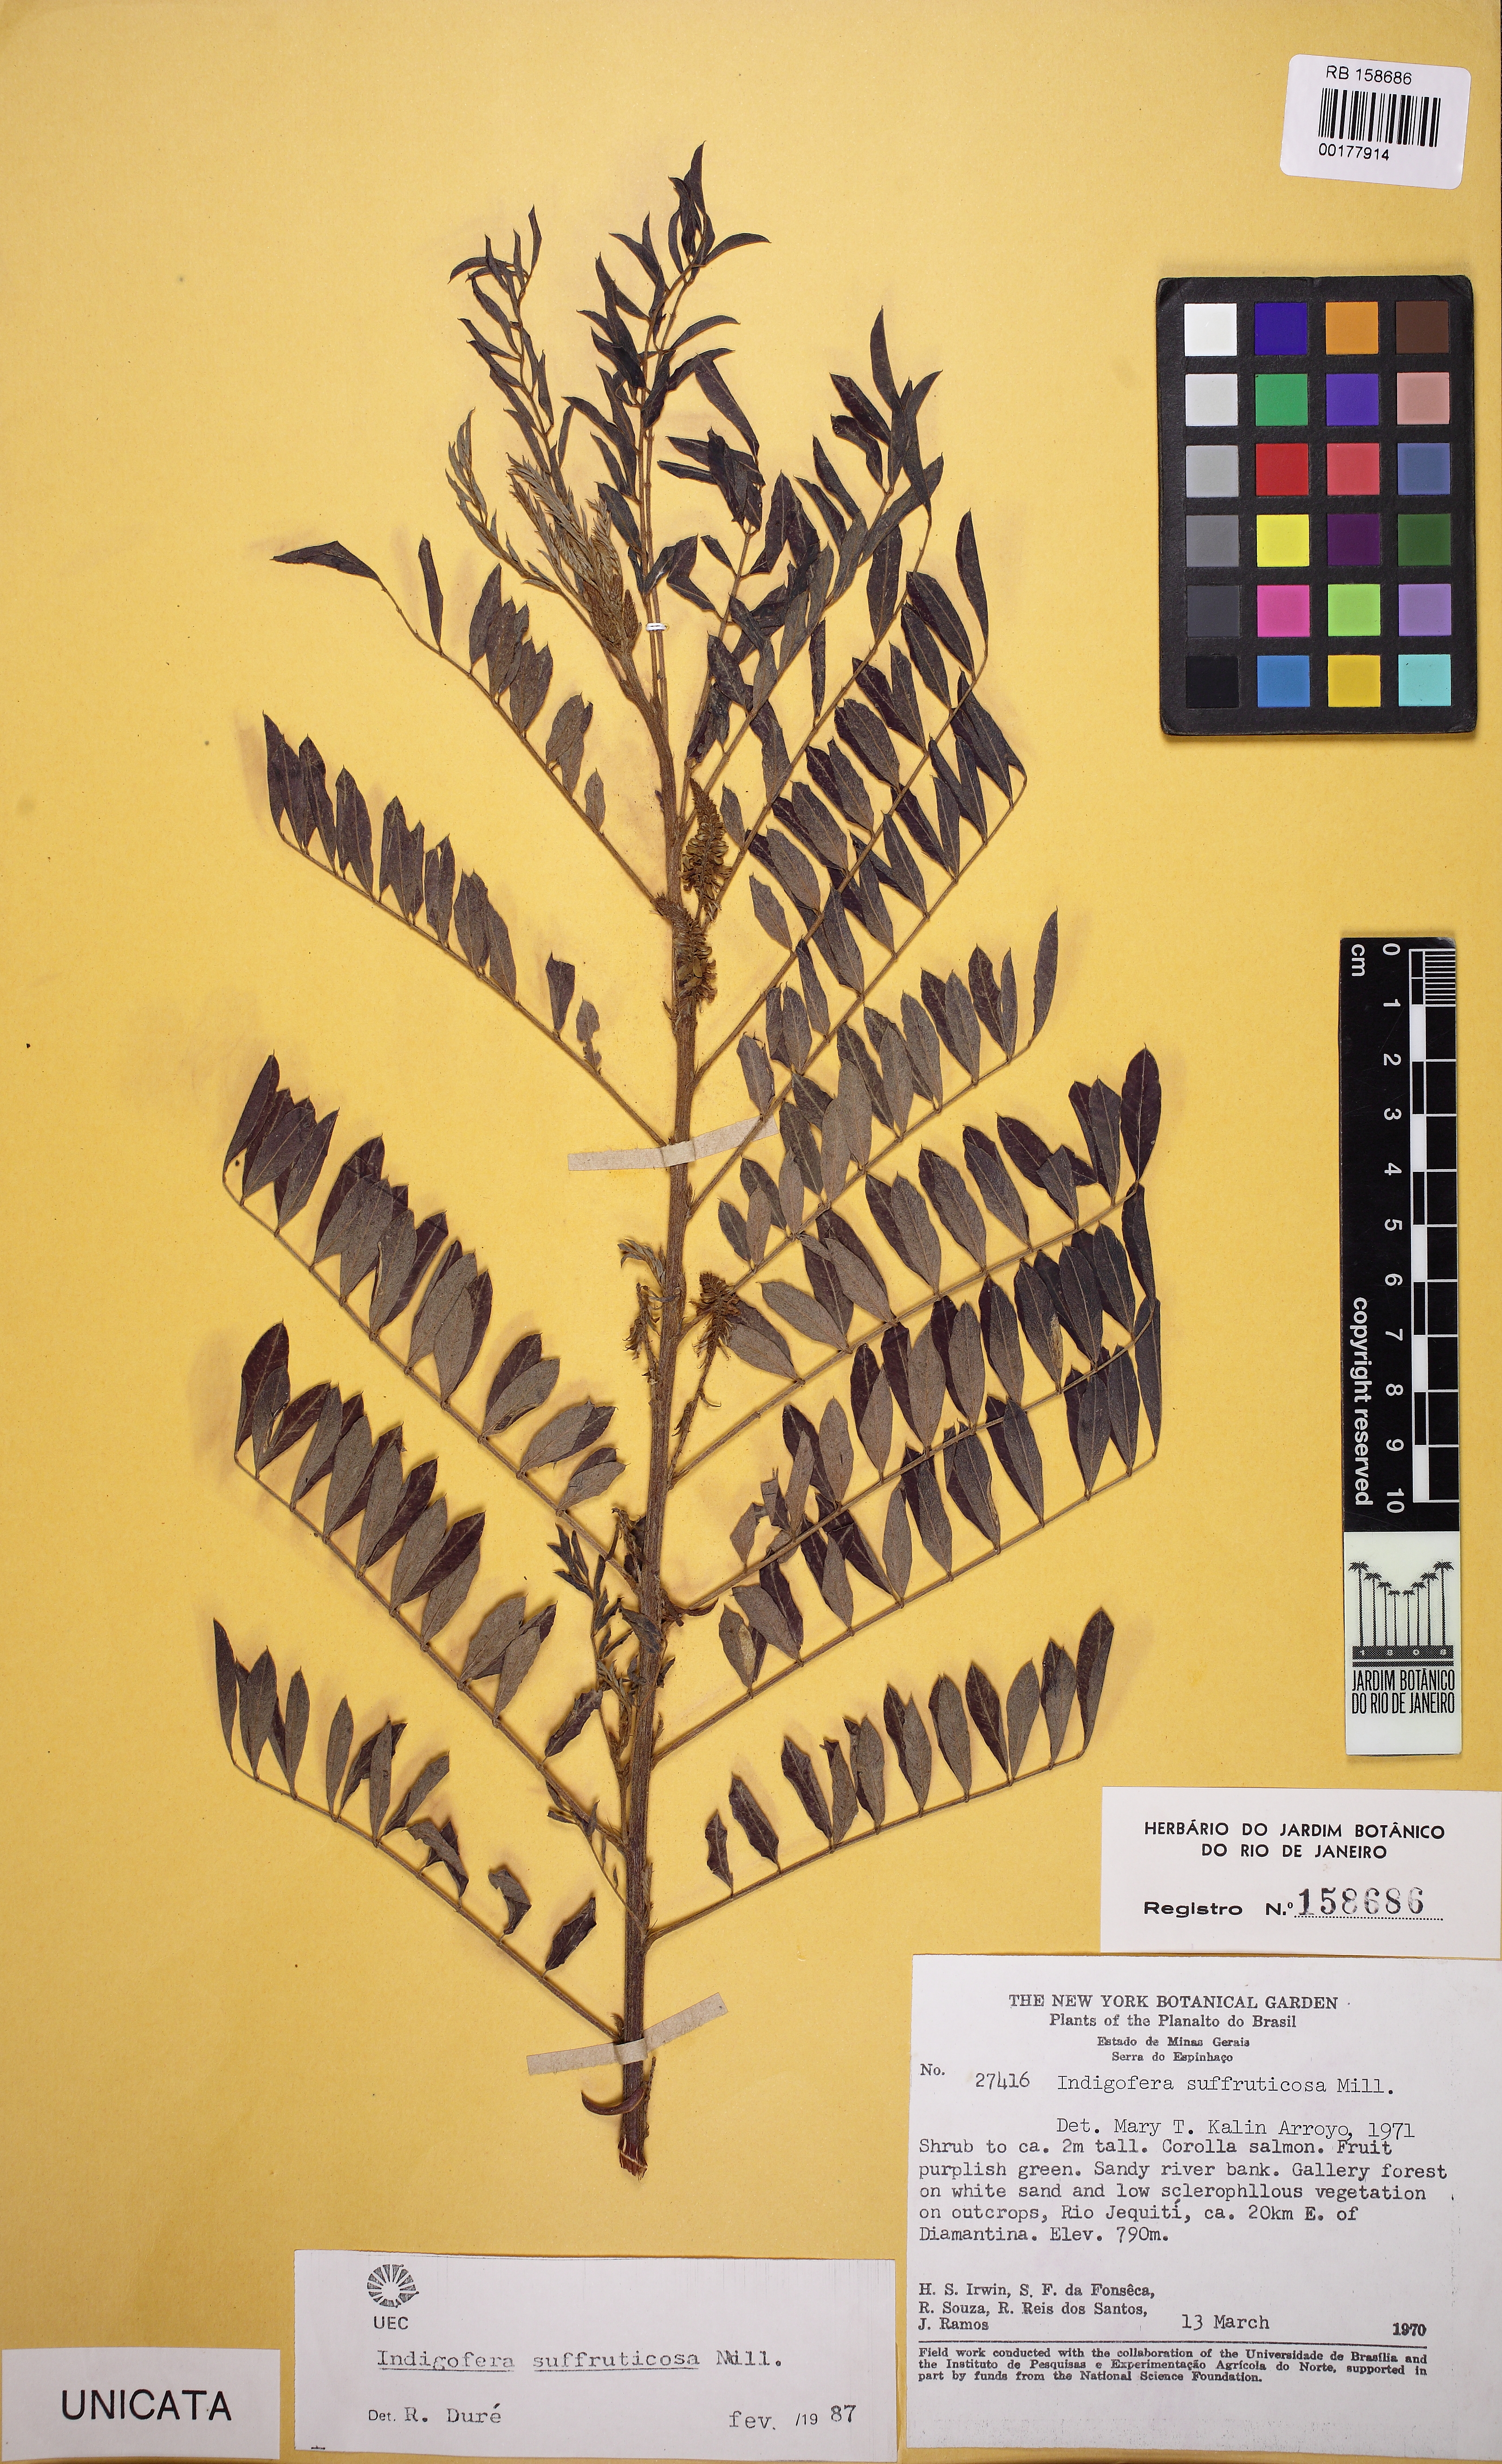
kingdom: Plantae
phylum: Tracheophyta
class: Magnoliopsida
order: Fabales
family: Fabaceae
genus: Indigofera
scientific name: Indigofera suffruticosa
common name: Anil de pasto
